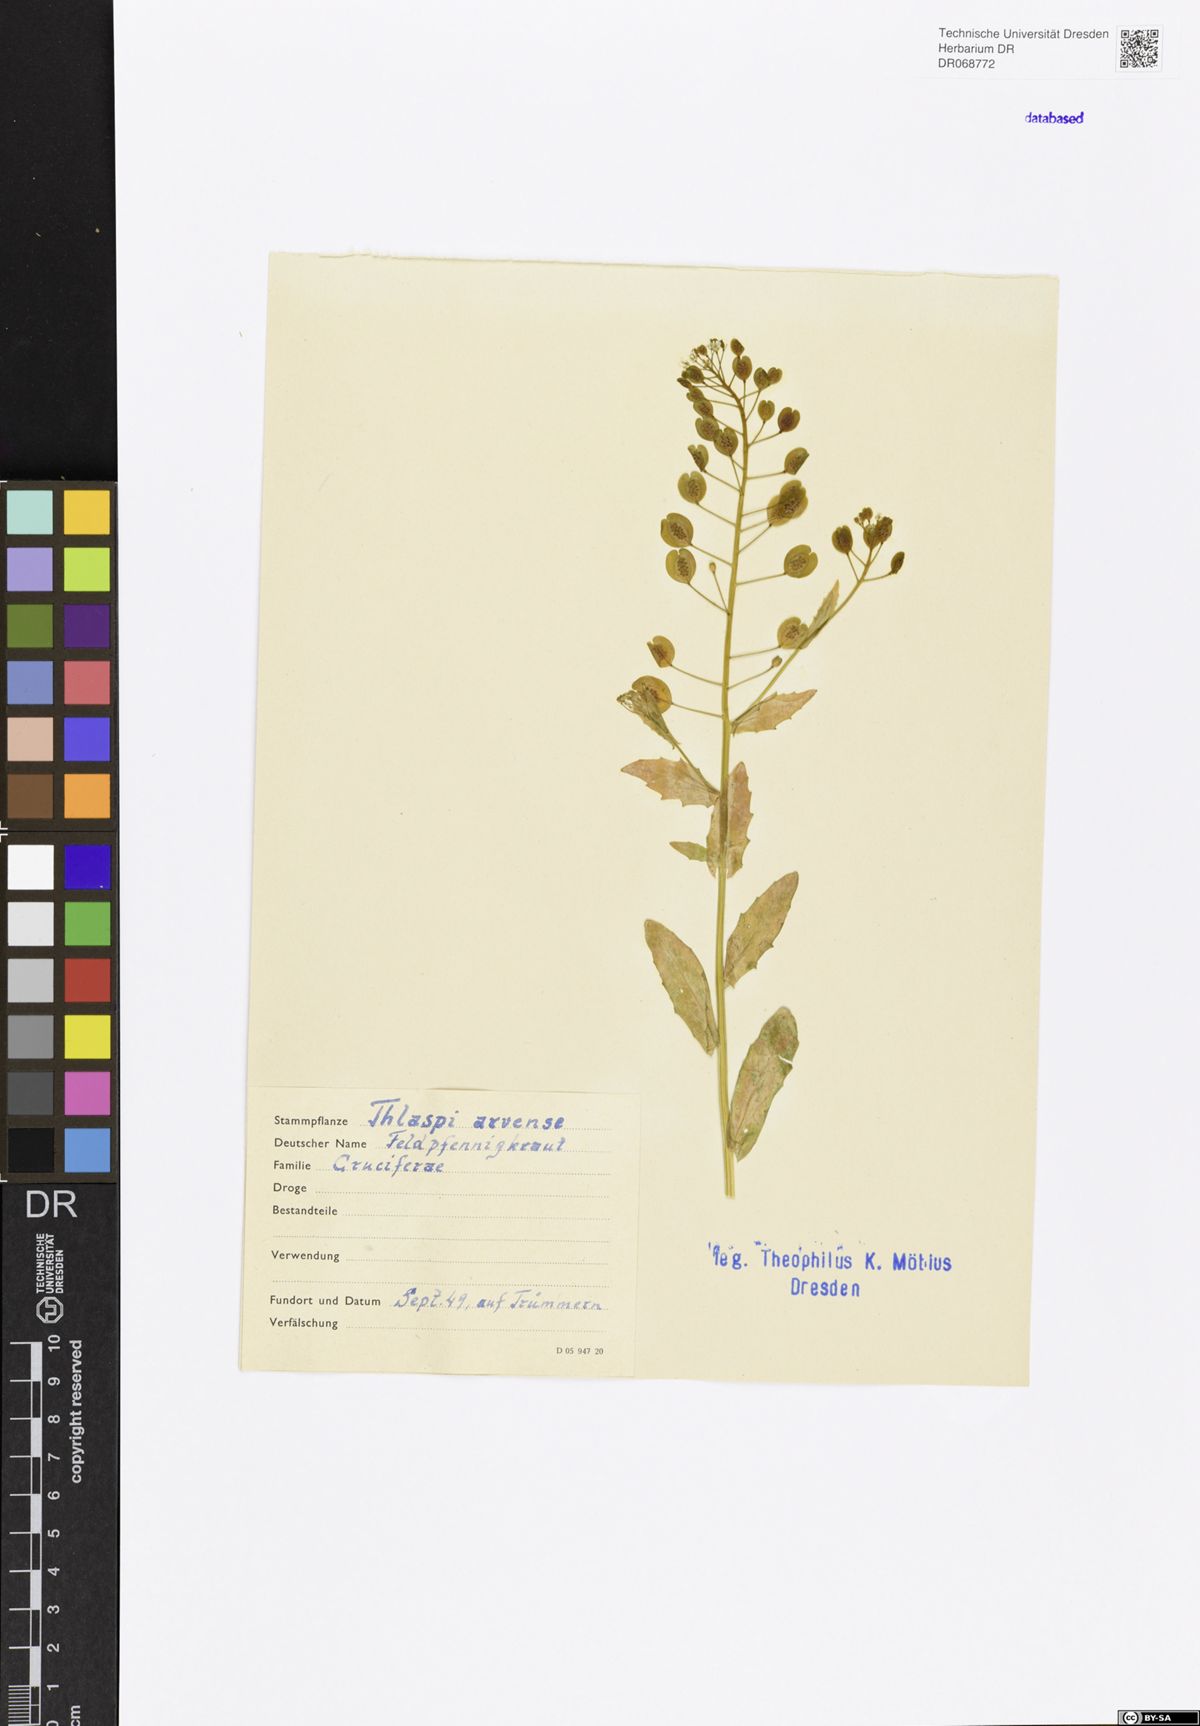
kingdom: Plantae
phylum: Tracheophyta
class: Magnoliopsida
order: Brassicales
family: Brassicaceae
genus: Thlaspi
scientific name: Thlaspi arvense
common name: Field pennycress
